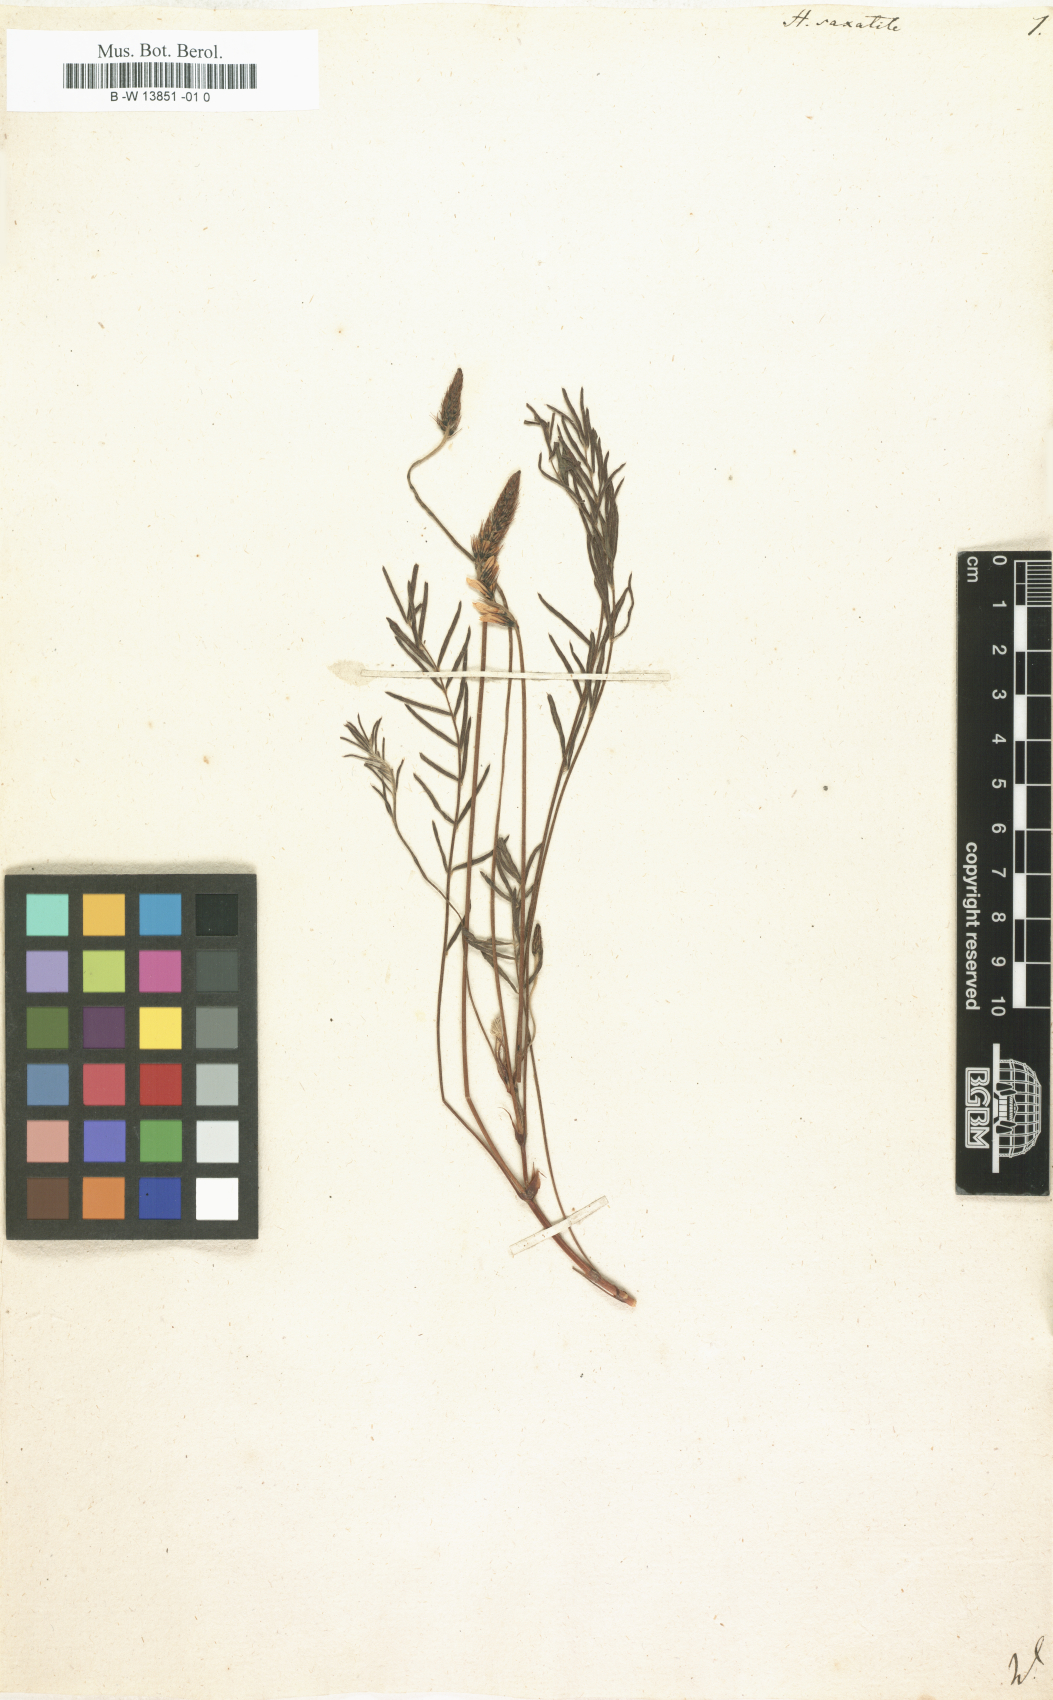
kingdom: Plantae
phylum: Tracheophyta
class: Magnoliopsida
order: Fabales
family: Fabaceae
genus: Onobrychis
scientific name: Onobrychis saxatilis
